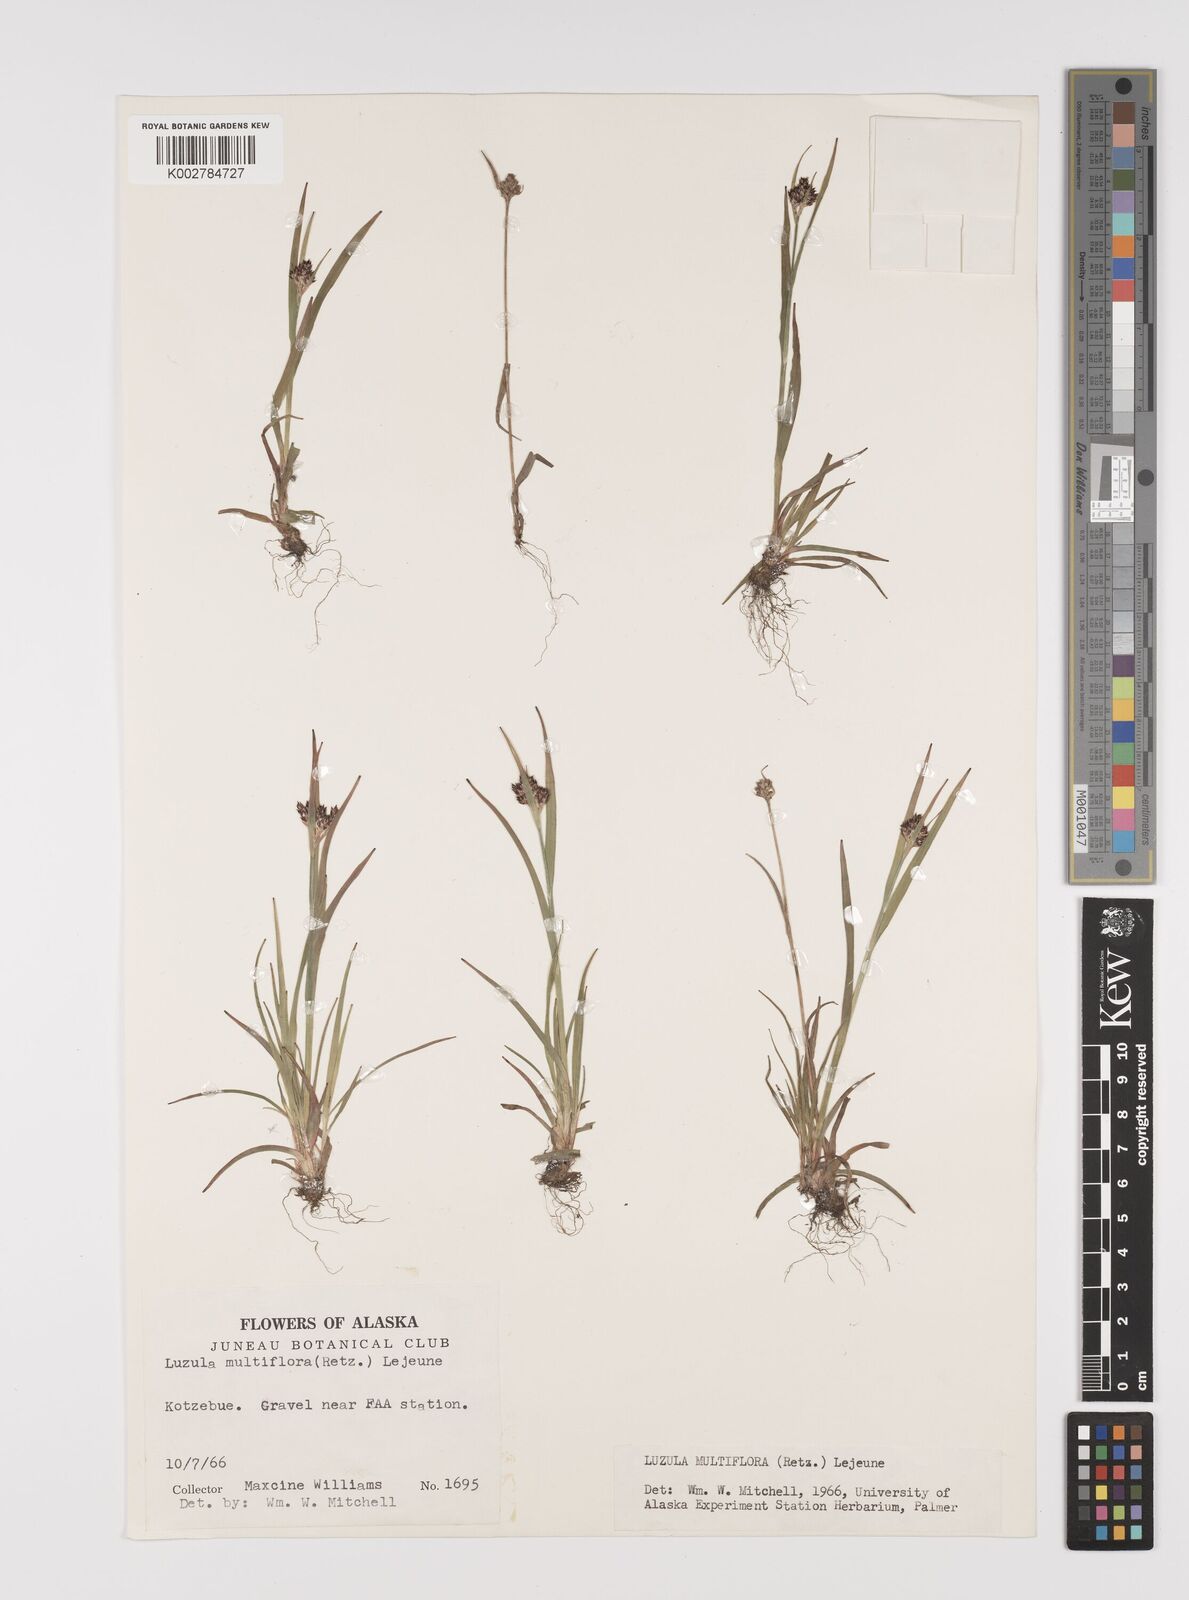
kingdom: Plantae
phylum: Tracheophyta
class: Liliopsida
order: Poales
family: Juncaceae
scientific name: Juncaceae
